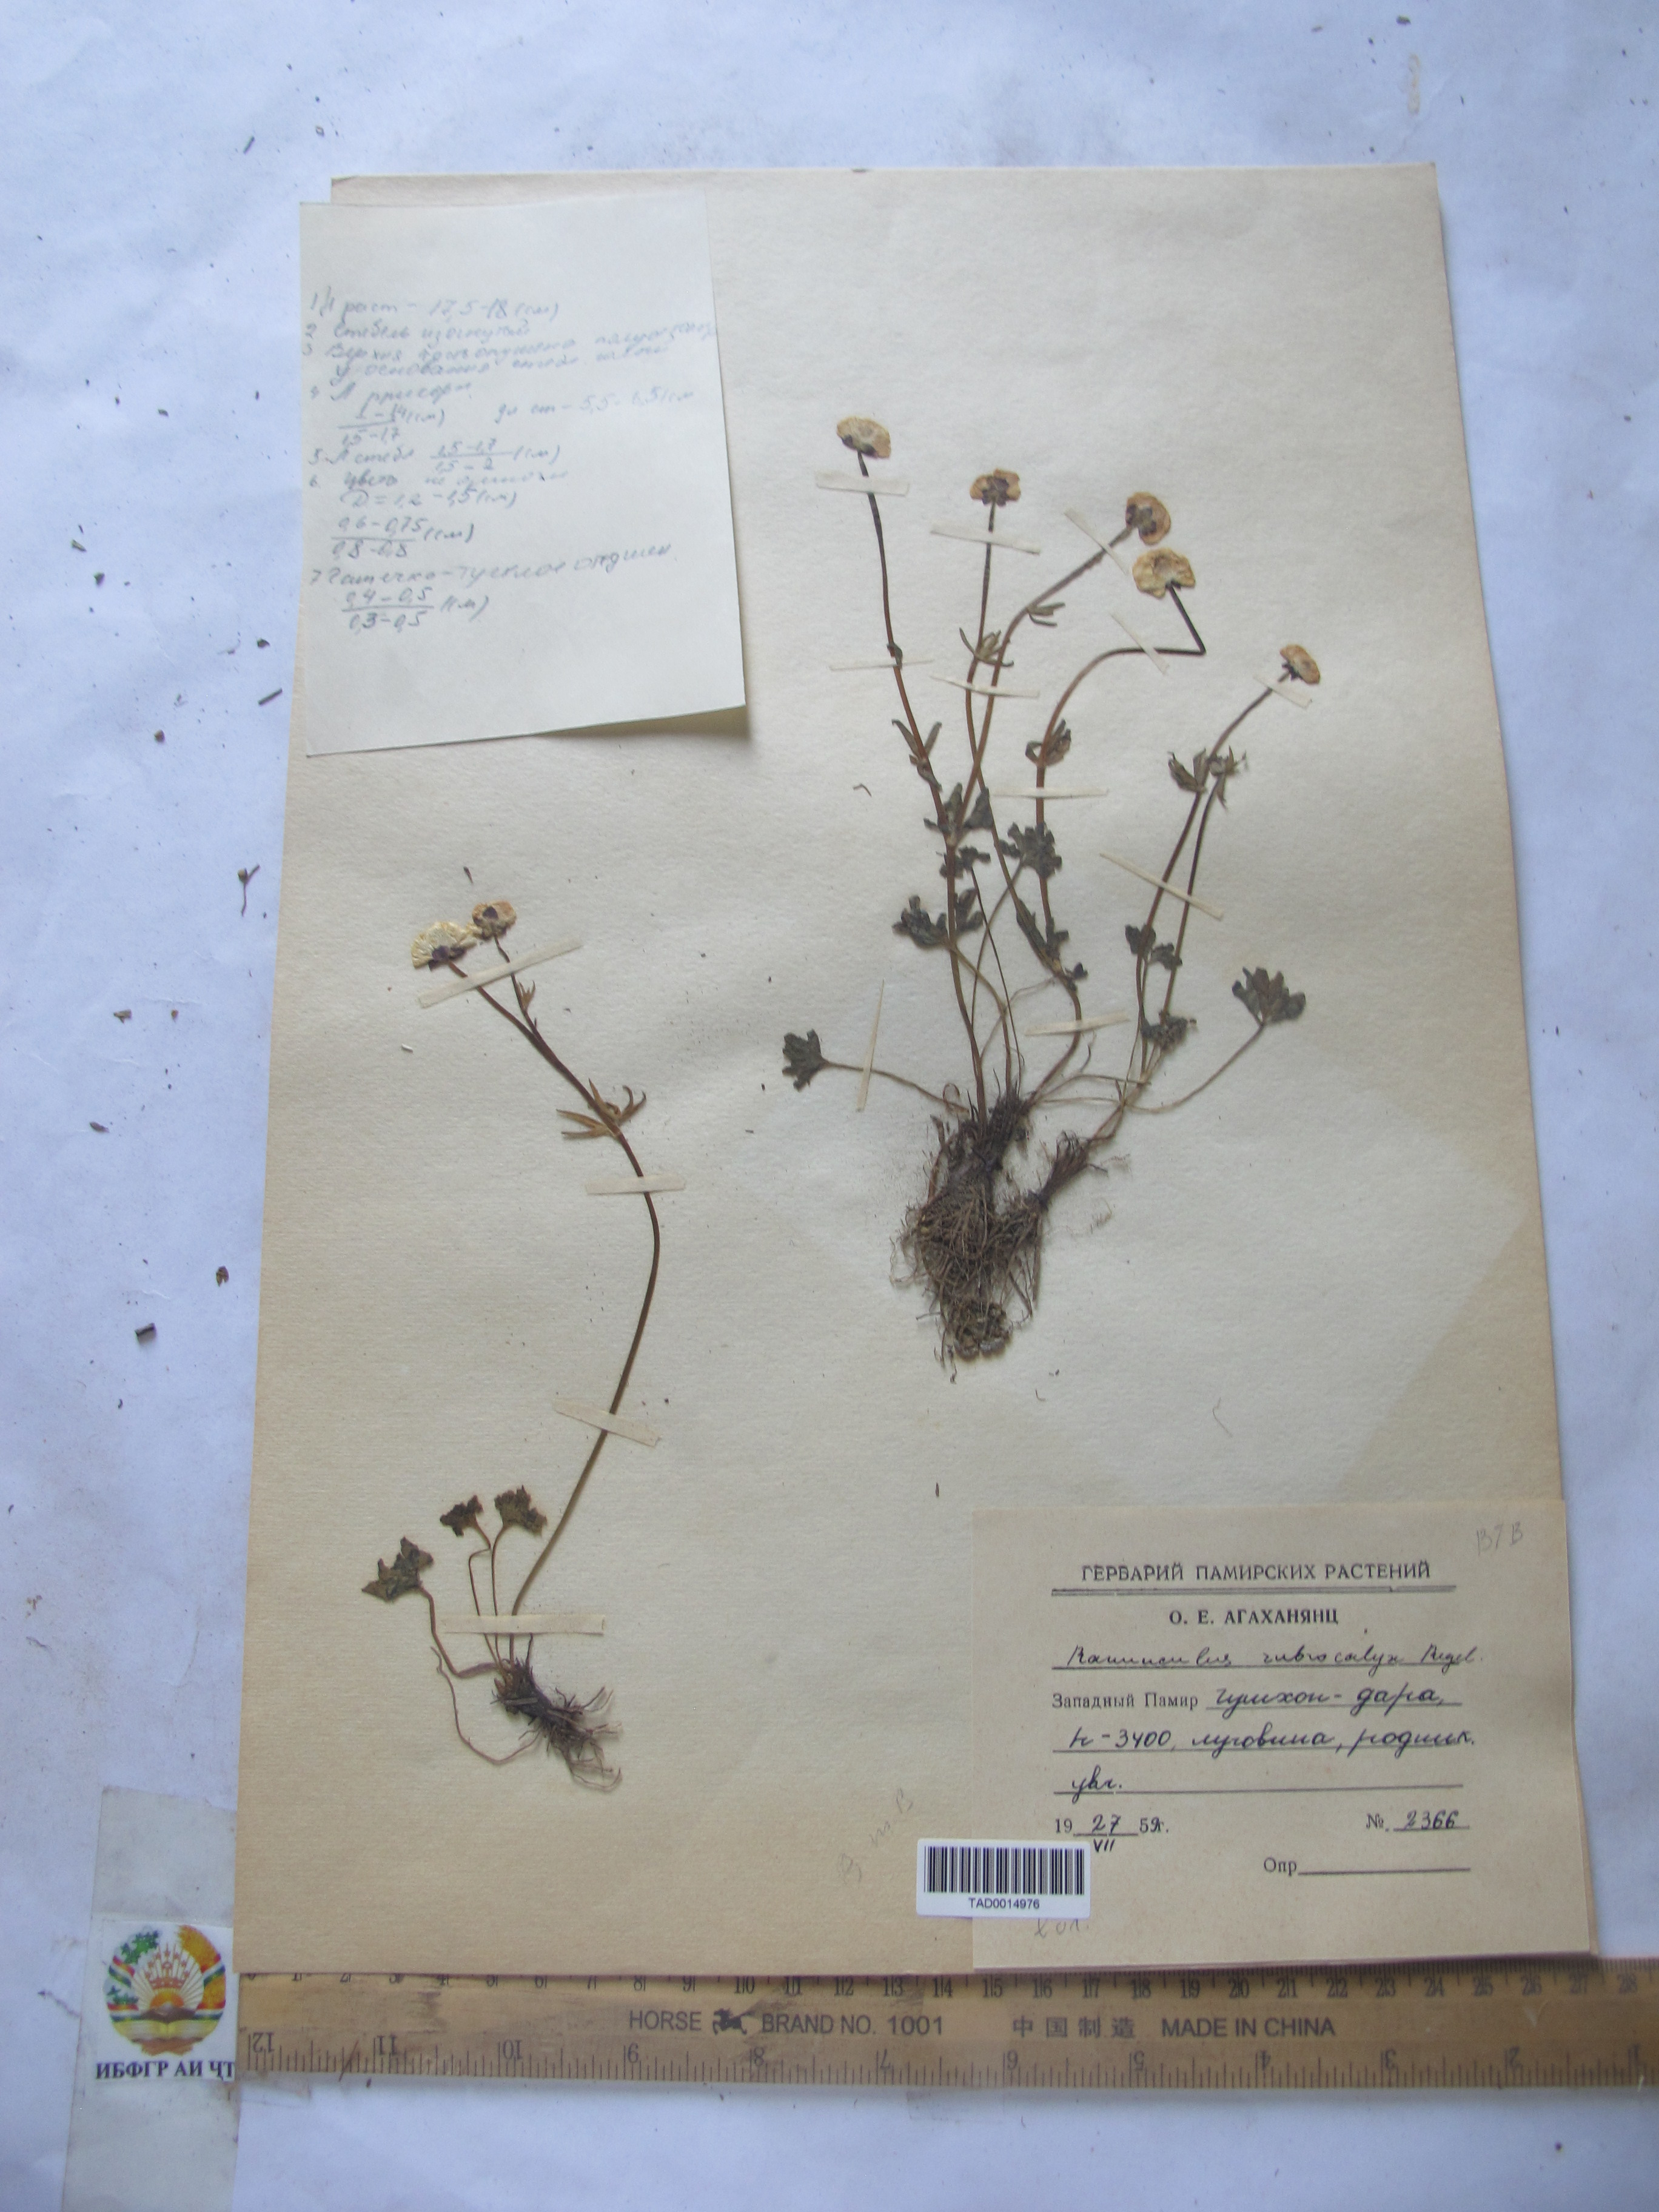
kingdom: Plantae
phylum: Tracheophyta
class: Magnoliopsida
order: Ranunculales
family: Ranunculaceae
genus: Ranunculus
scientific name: Ranunculus rubrocalyx
